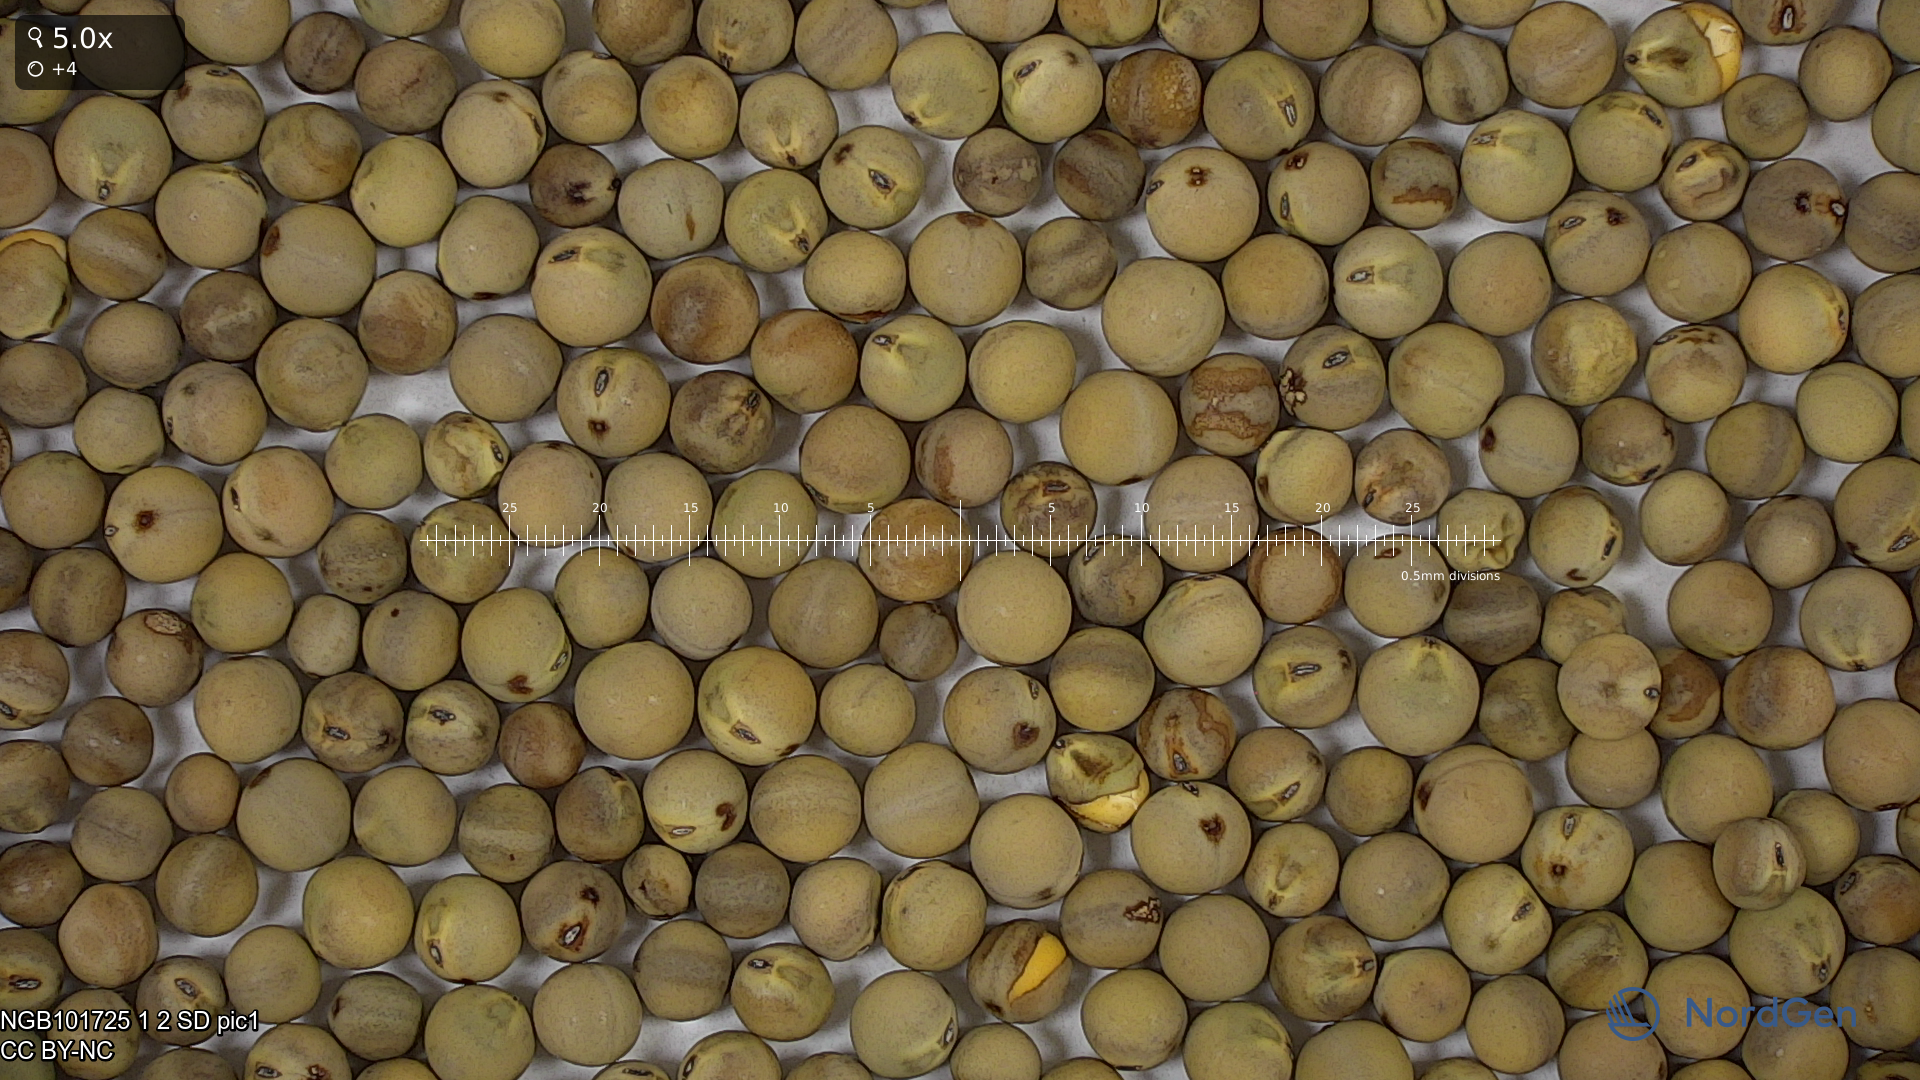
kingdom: Plantae
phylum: Tracheophyta
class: Magnoliopsida
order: Fabales
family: Fabaceae
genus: Lathyrus
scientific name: Lathyrus oleraceus
